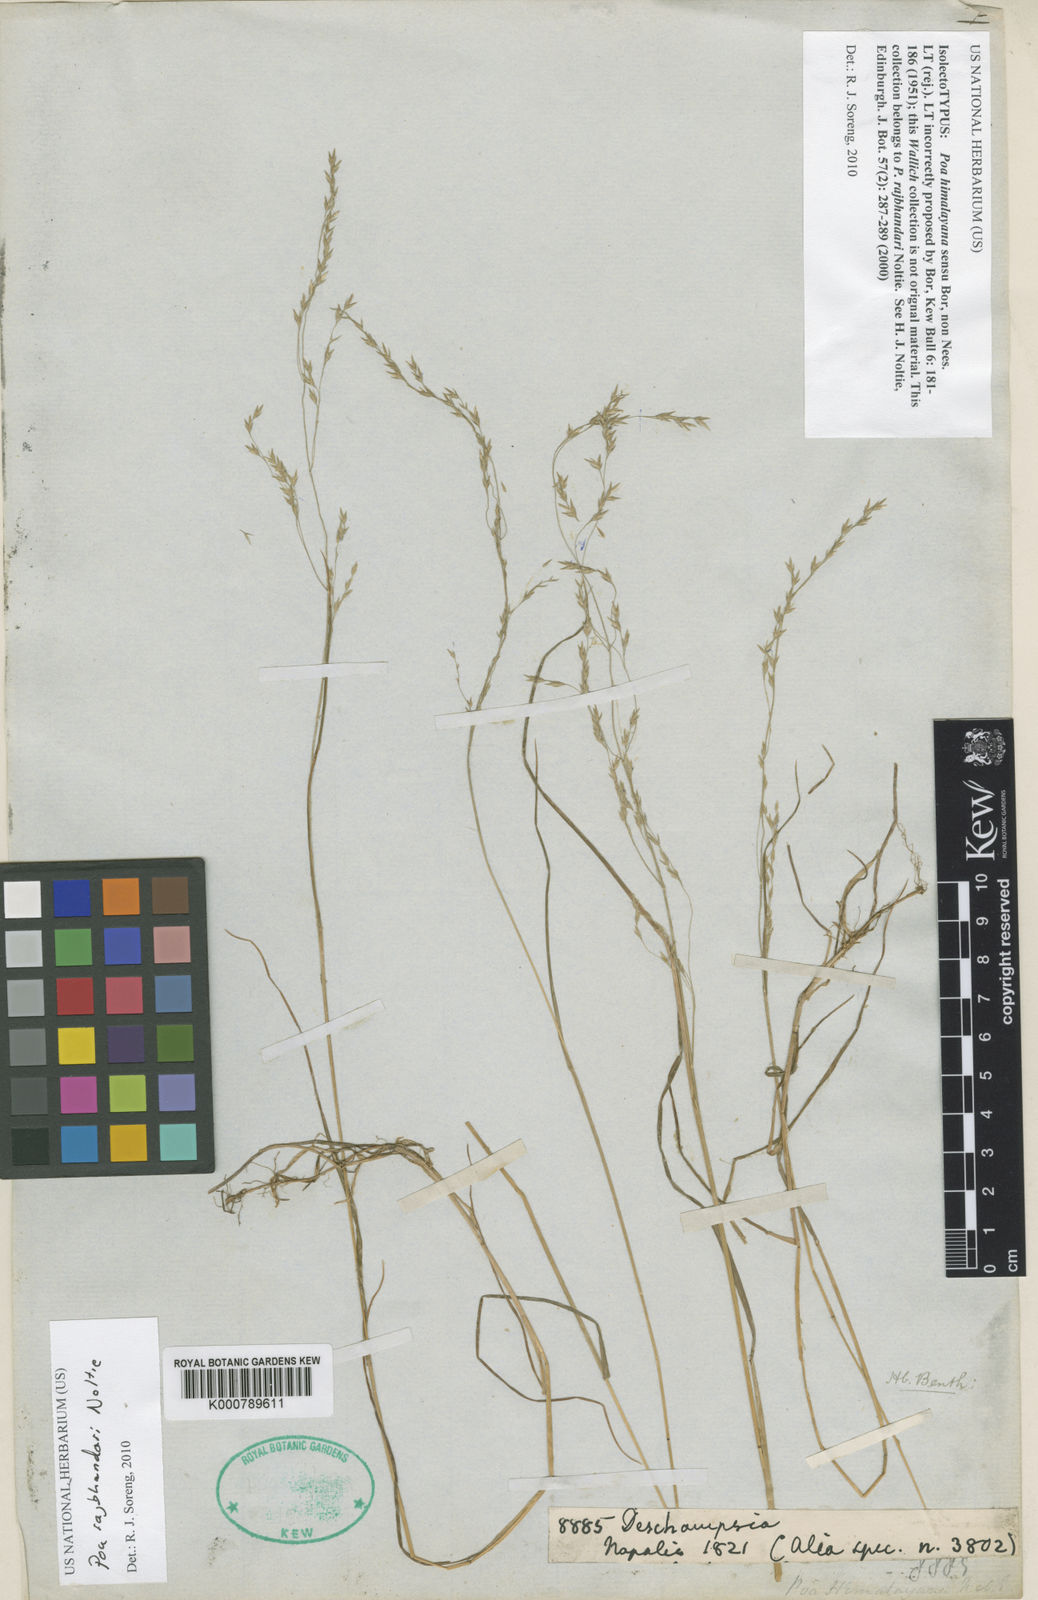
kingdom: Plantae
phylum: Tracheophyta
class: Liliopsida
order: Poales
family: Poaceae
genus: Poa
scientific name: Poa rajbhandarii
